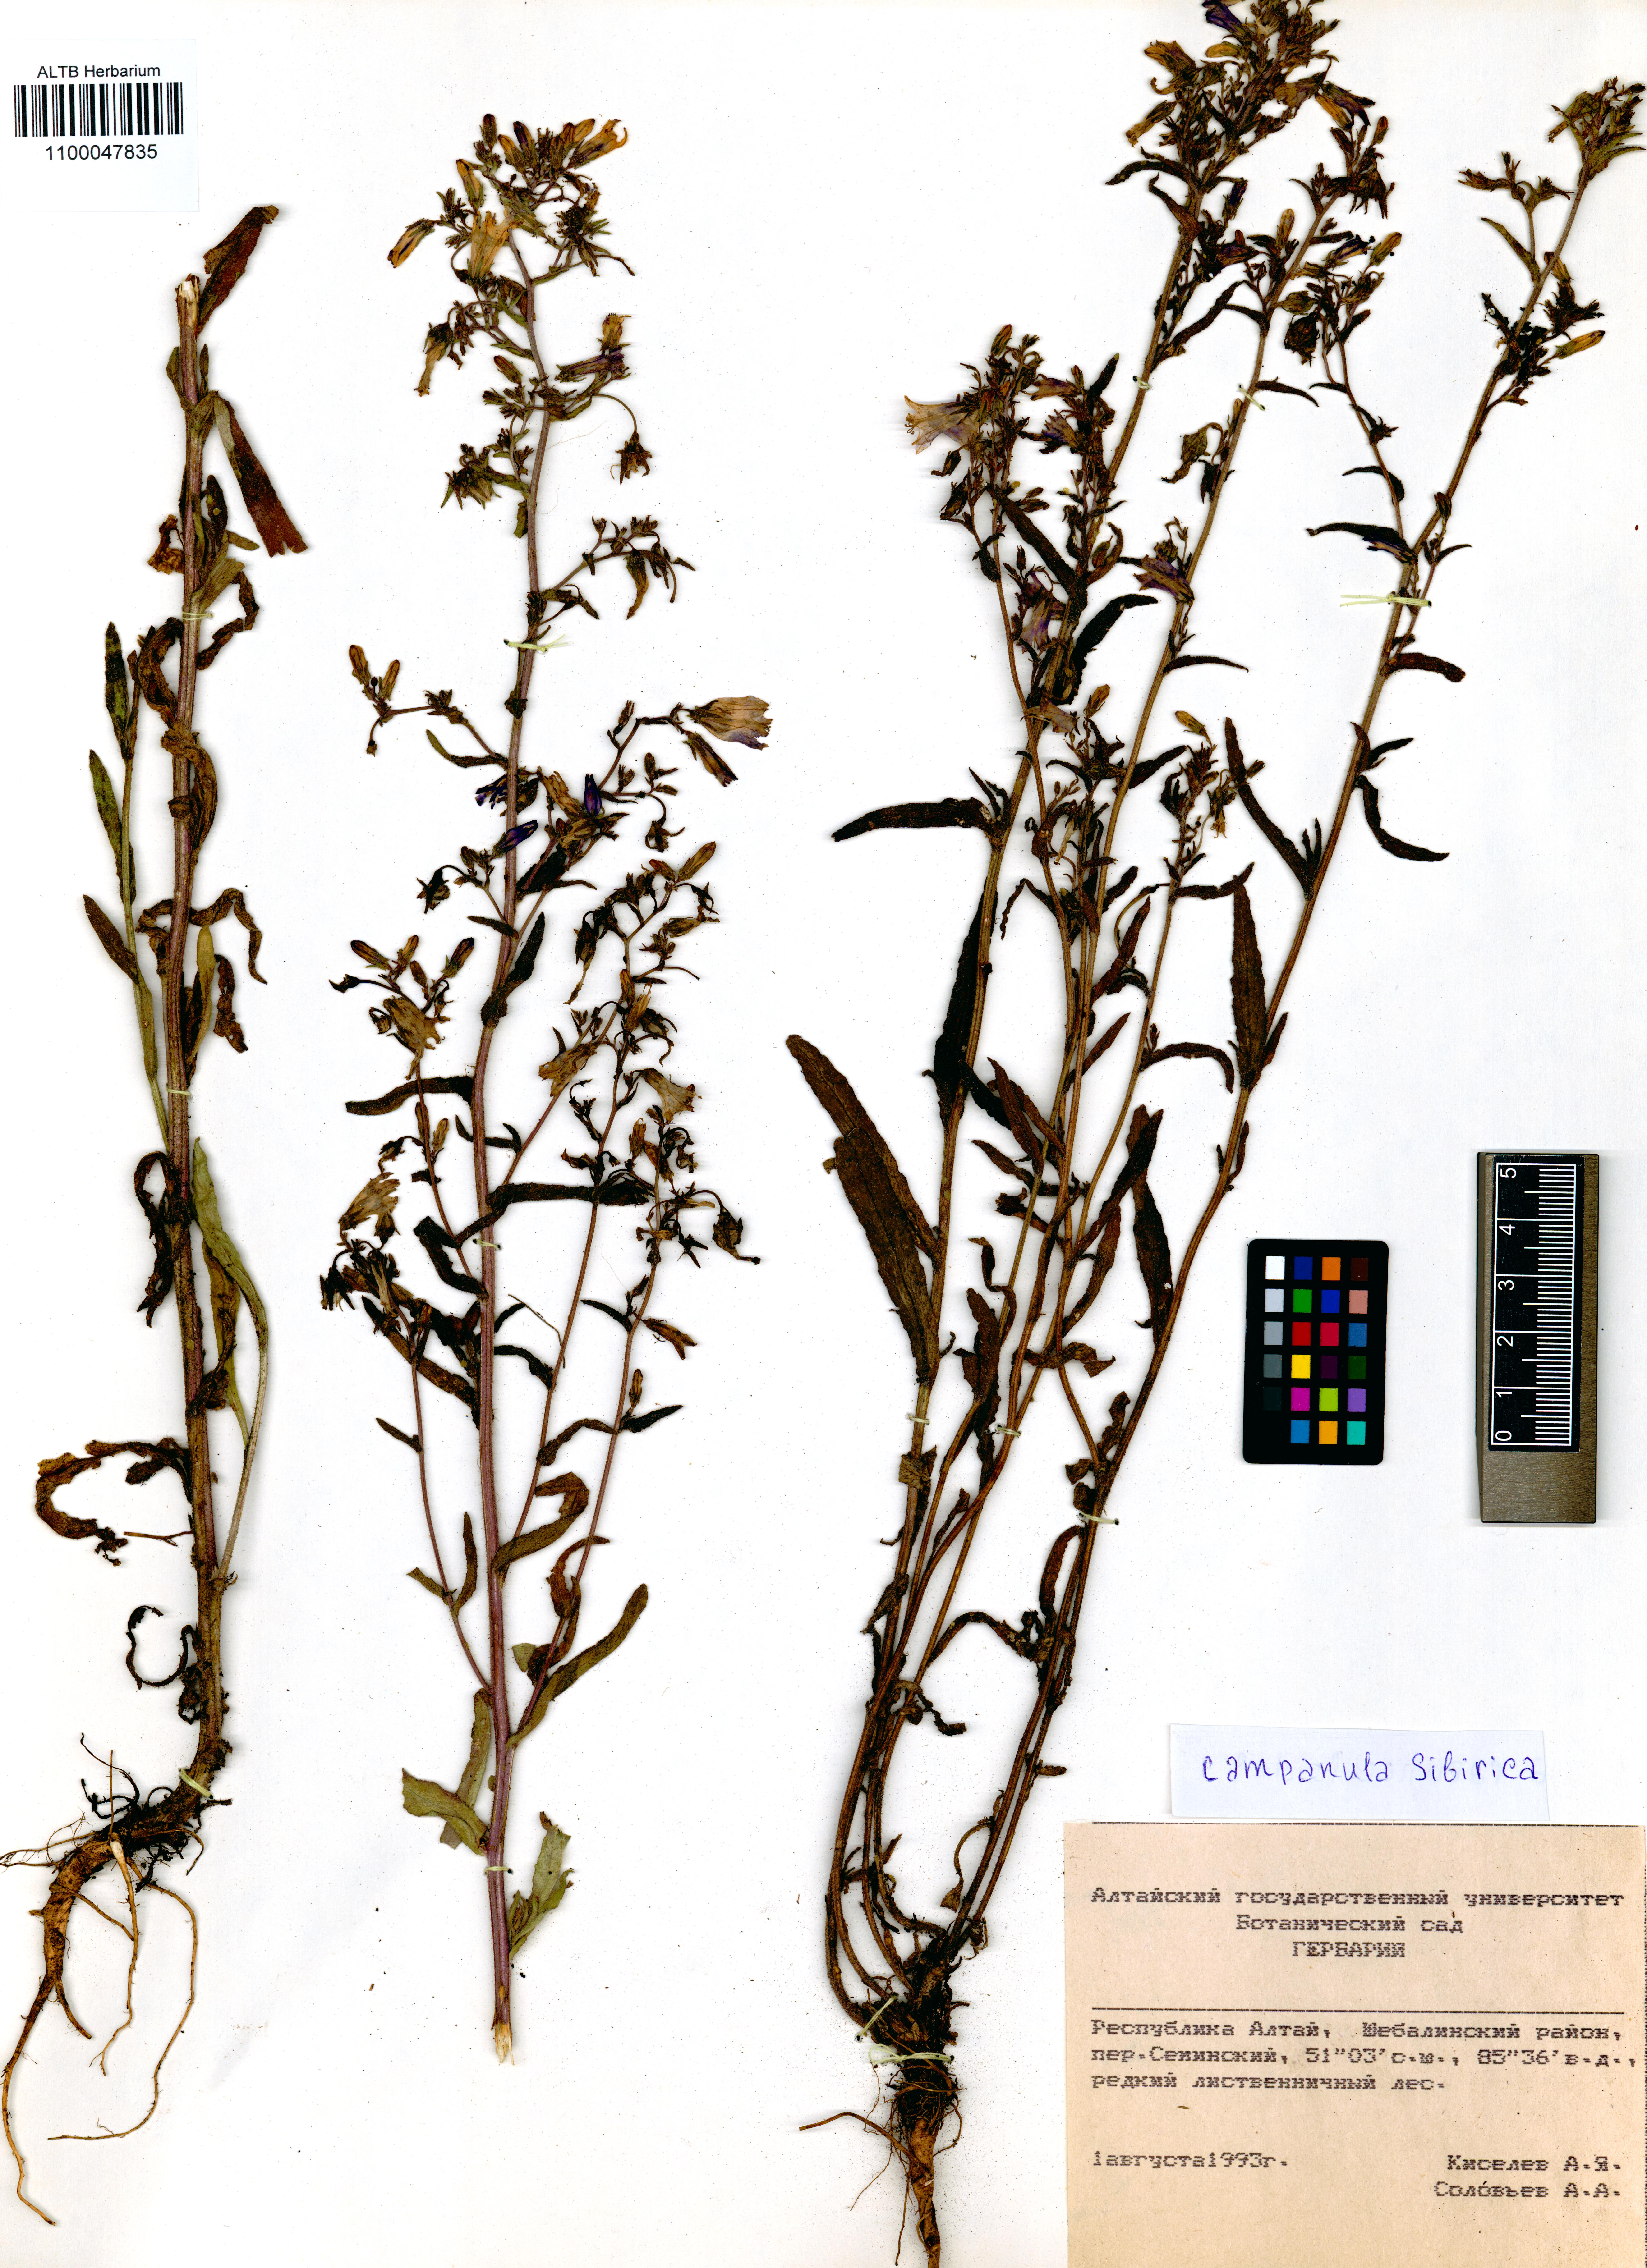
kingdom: Plantae
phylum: Tracheophyta
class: Magnoliopsida
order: Asterales
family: Campanulaceae
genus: Campanula
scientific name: Campanula sibirica
